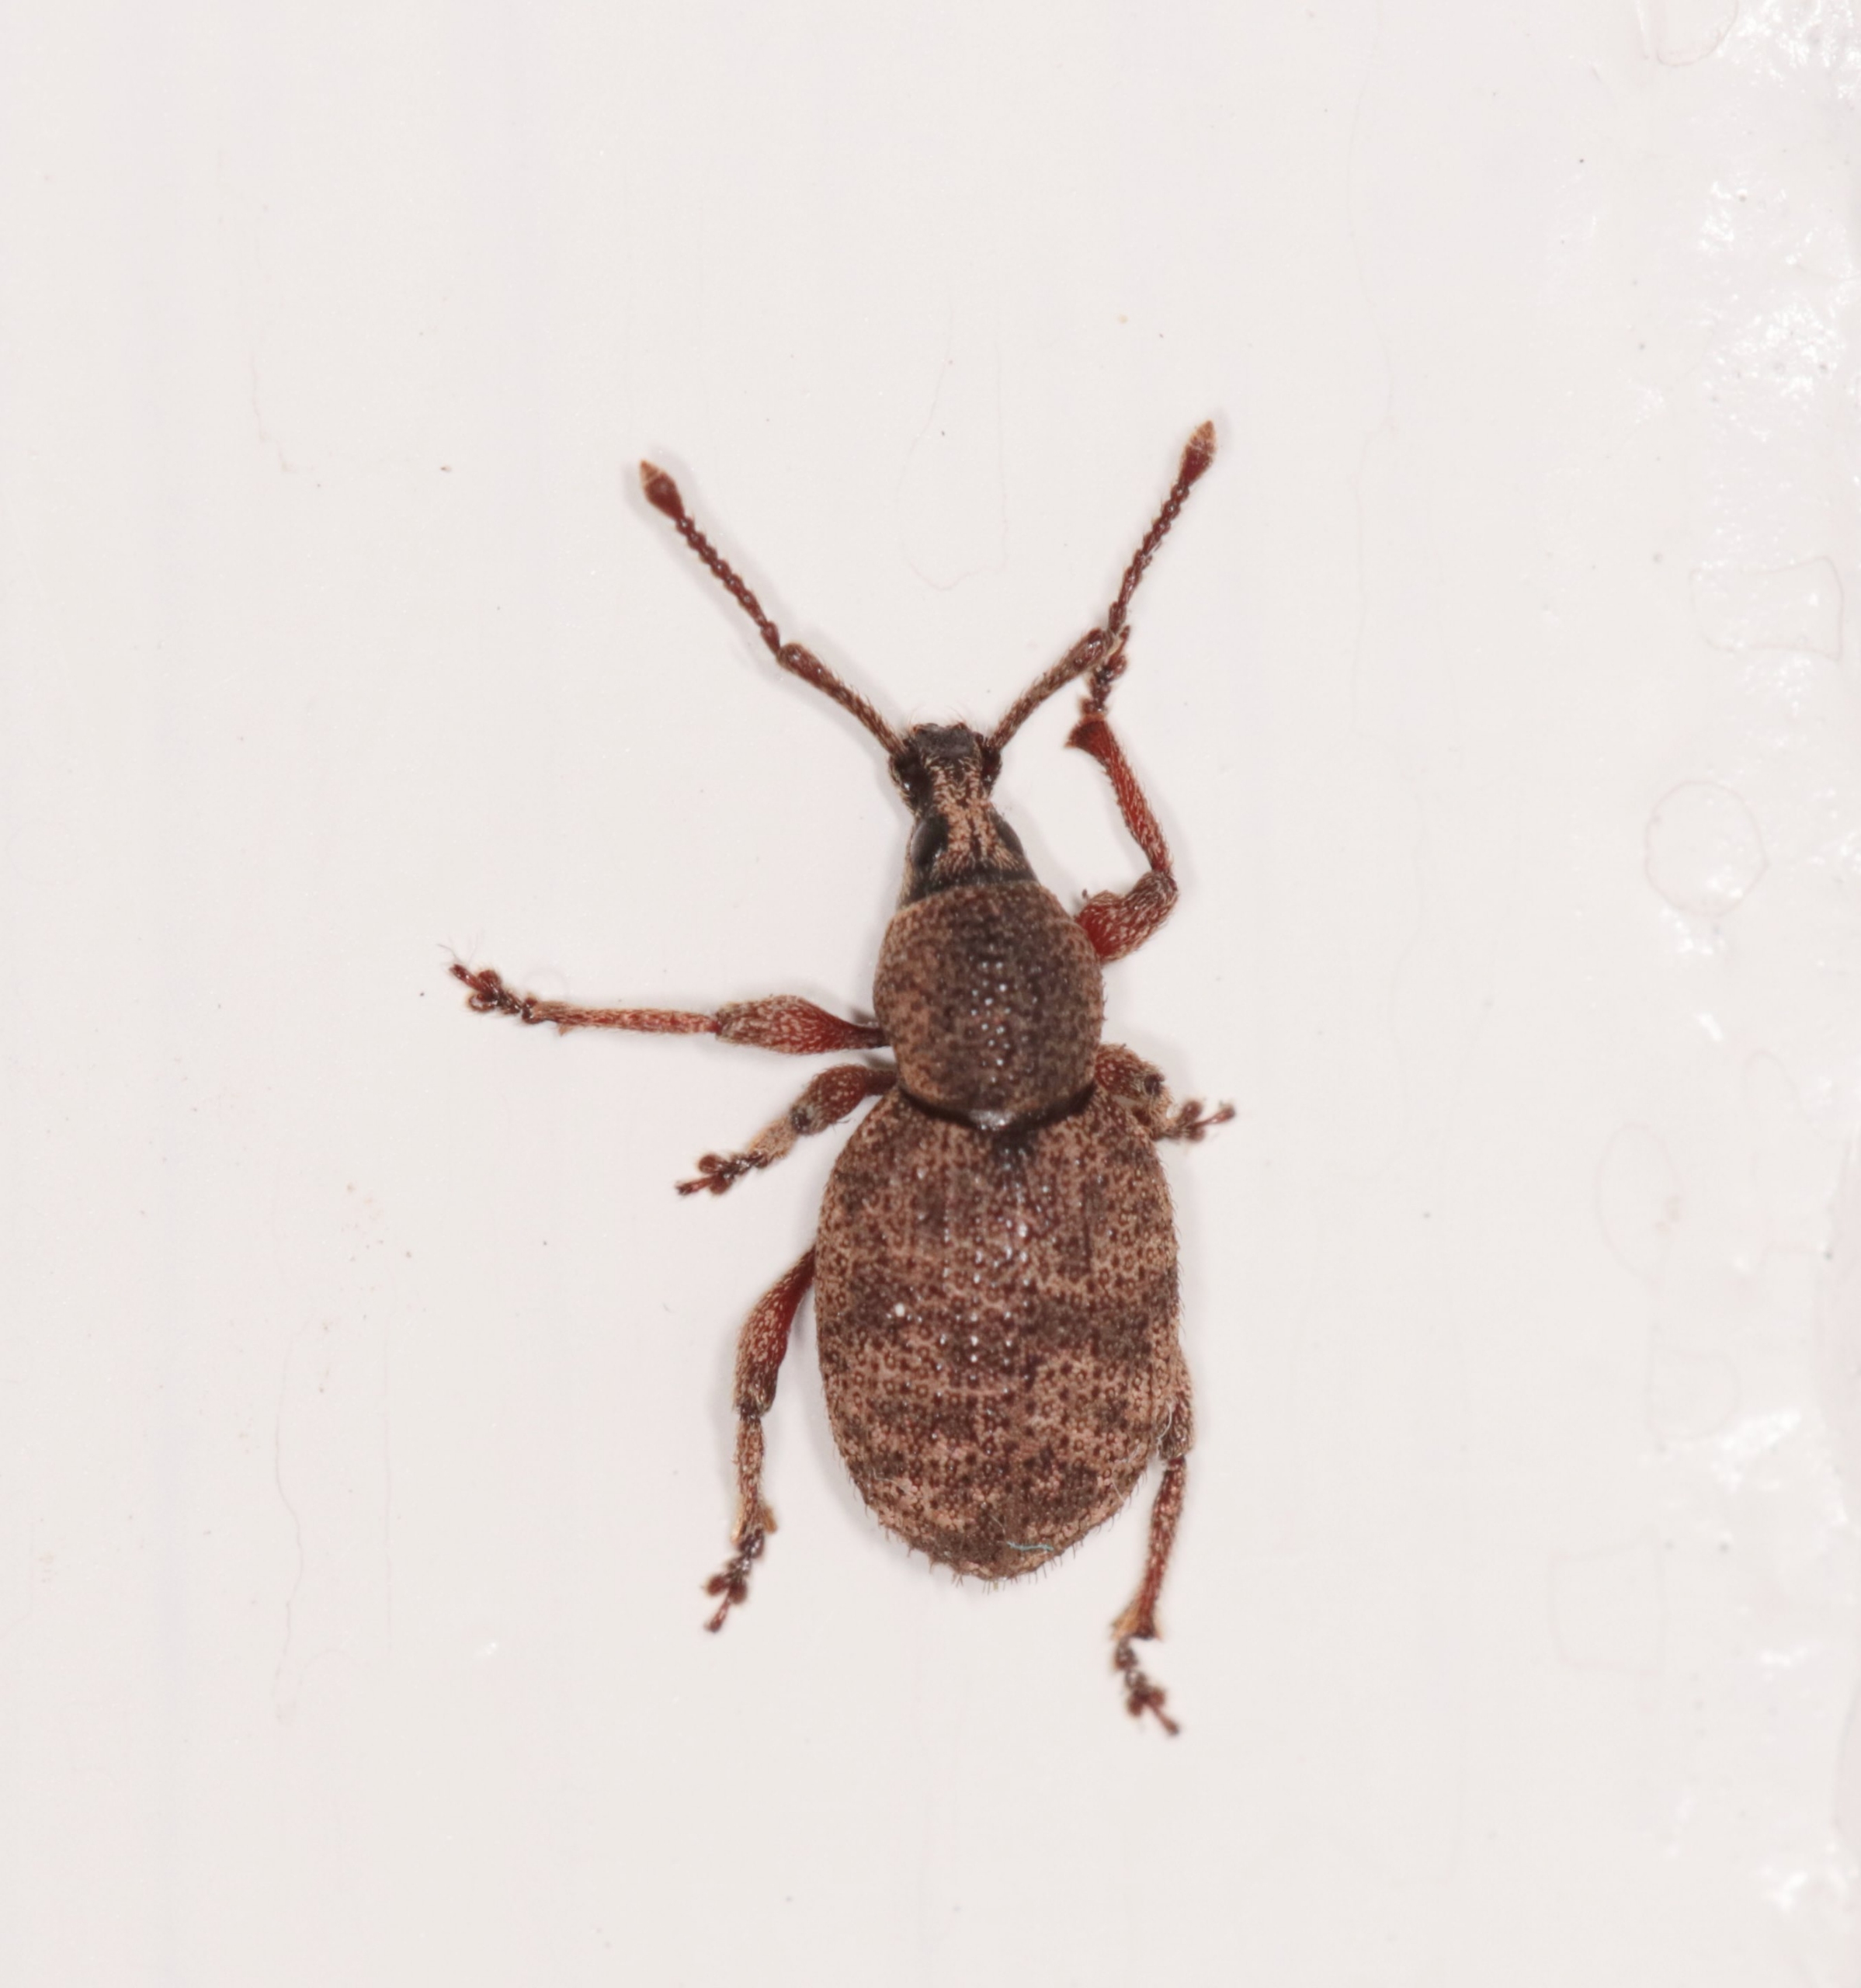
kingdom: Animalia
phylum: Arthropoda
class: Insecta
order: Coleoptera
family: Curculionidae
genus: Otiorhynchus
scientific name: Otiorhynchus singularis
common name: Barkøresnudebille
